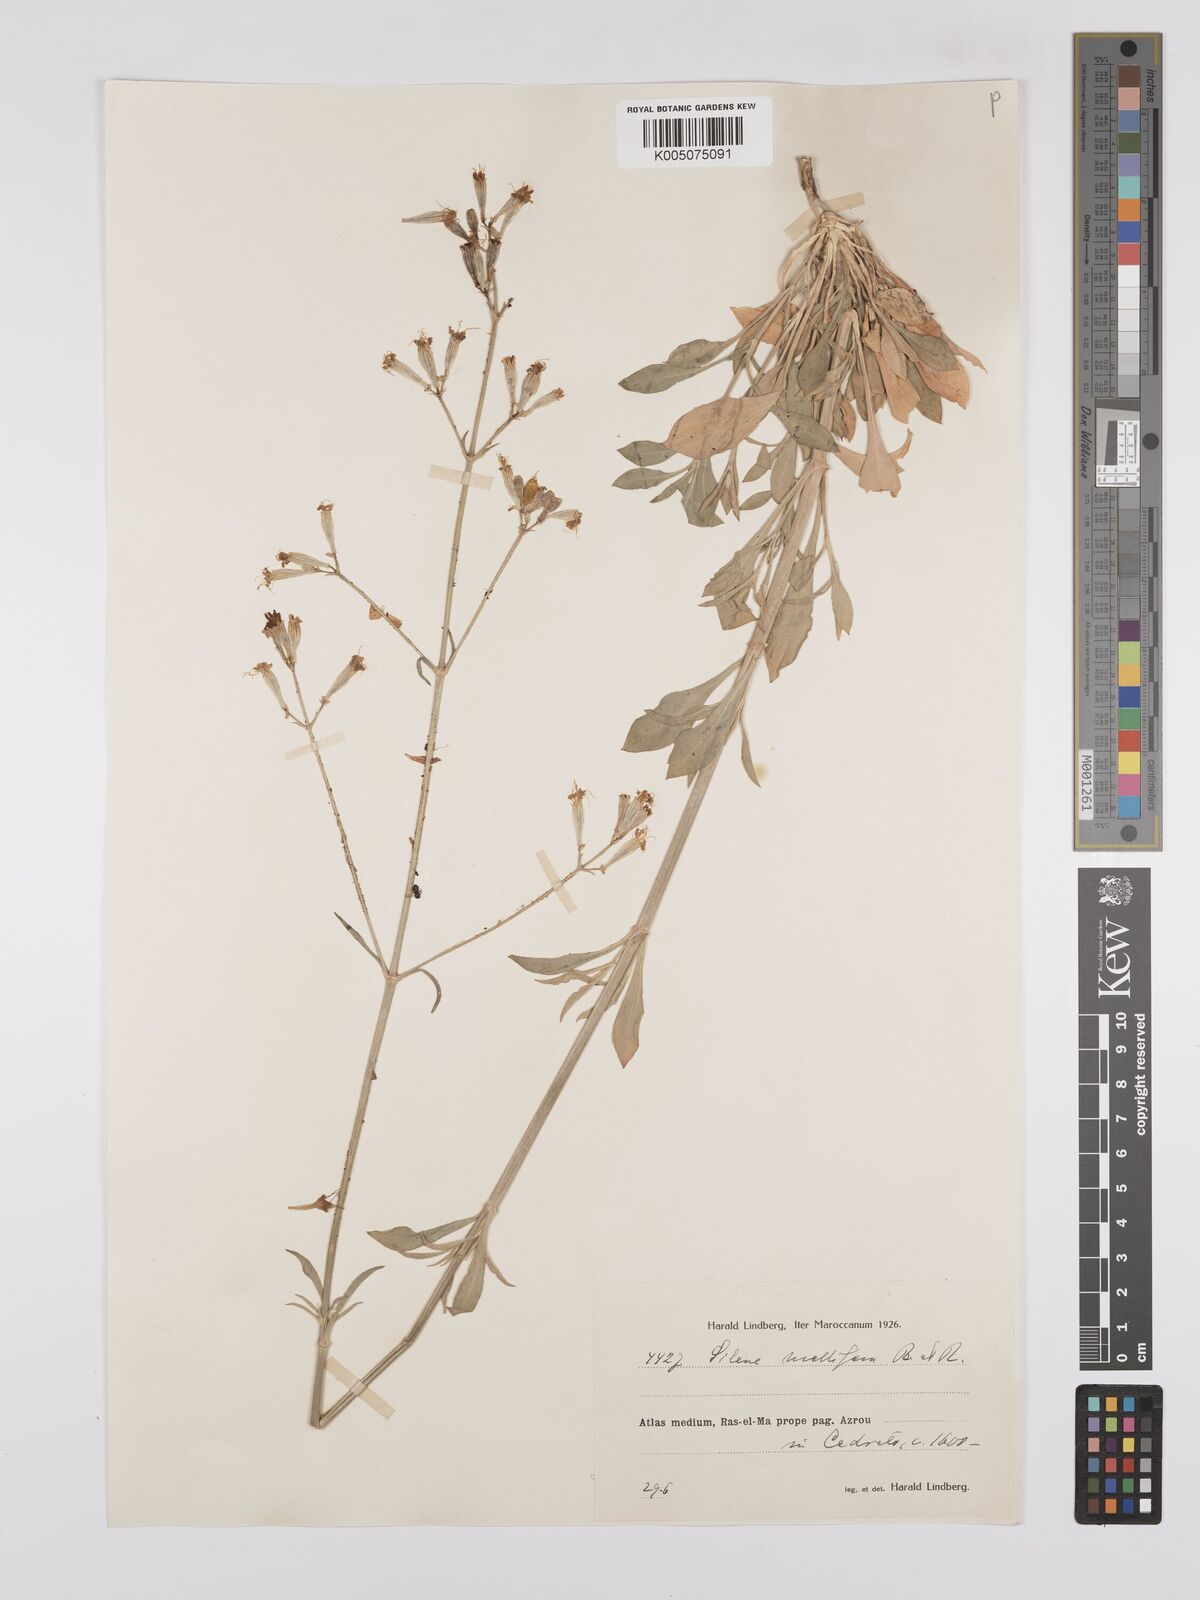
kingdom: Plantae
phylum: Tracheophyta
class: Magnoliopsida
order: Caryophyllales
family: Caryophyllaceae
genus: Silene
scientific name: Silene obtusifolia
